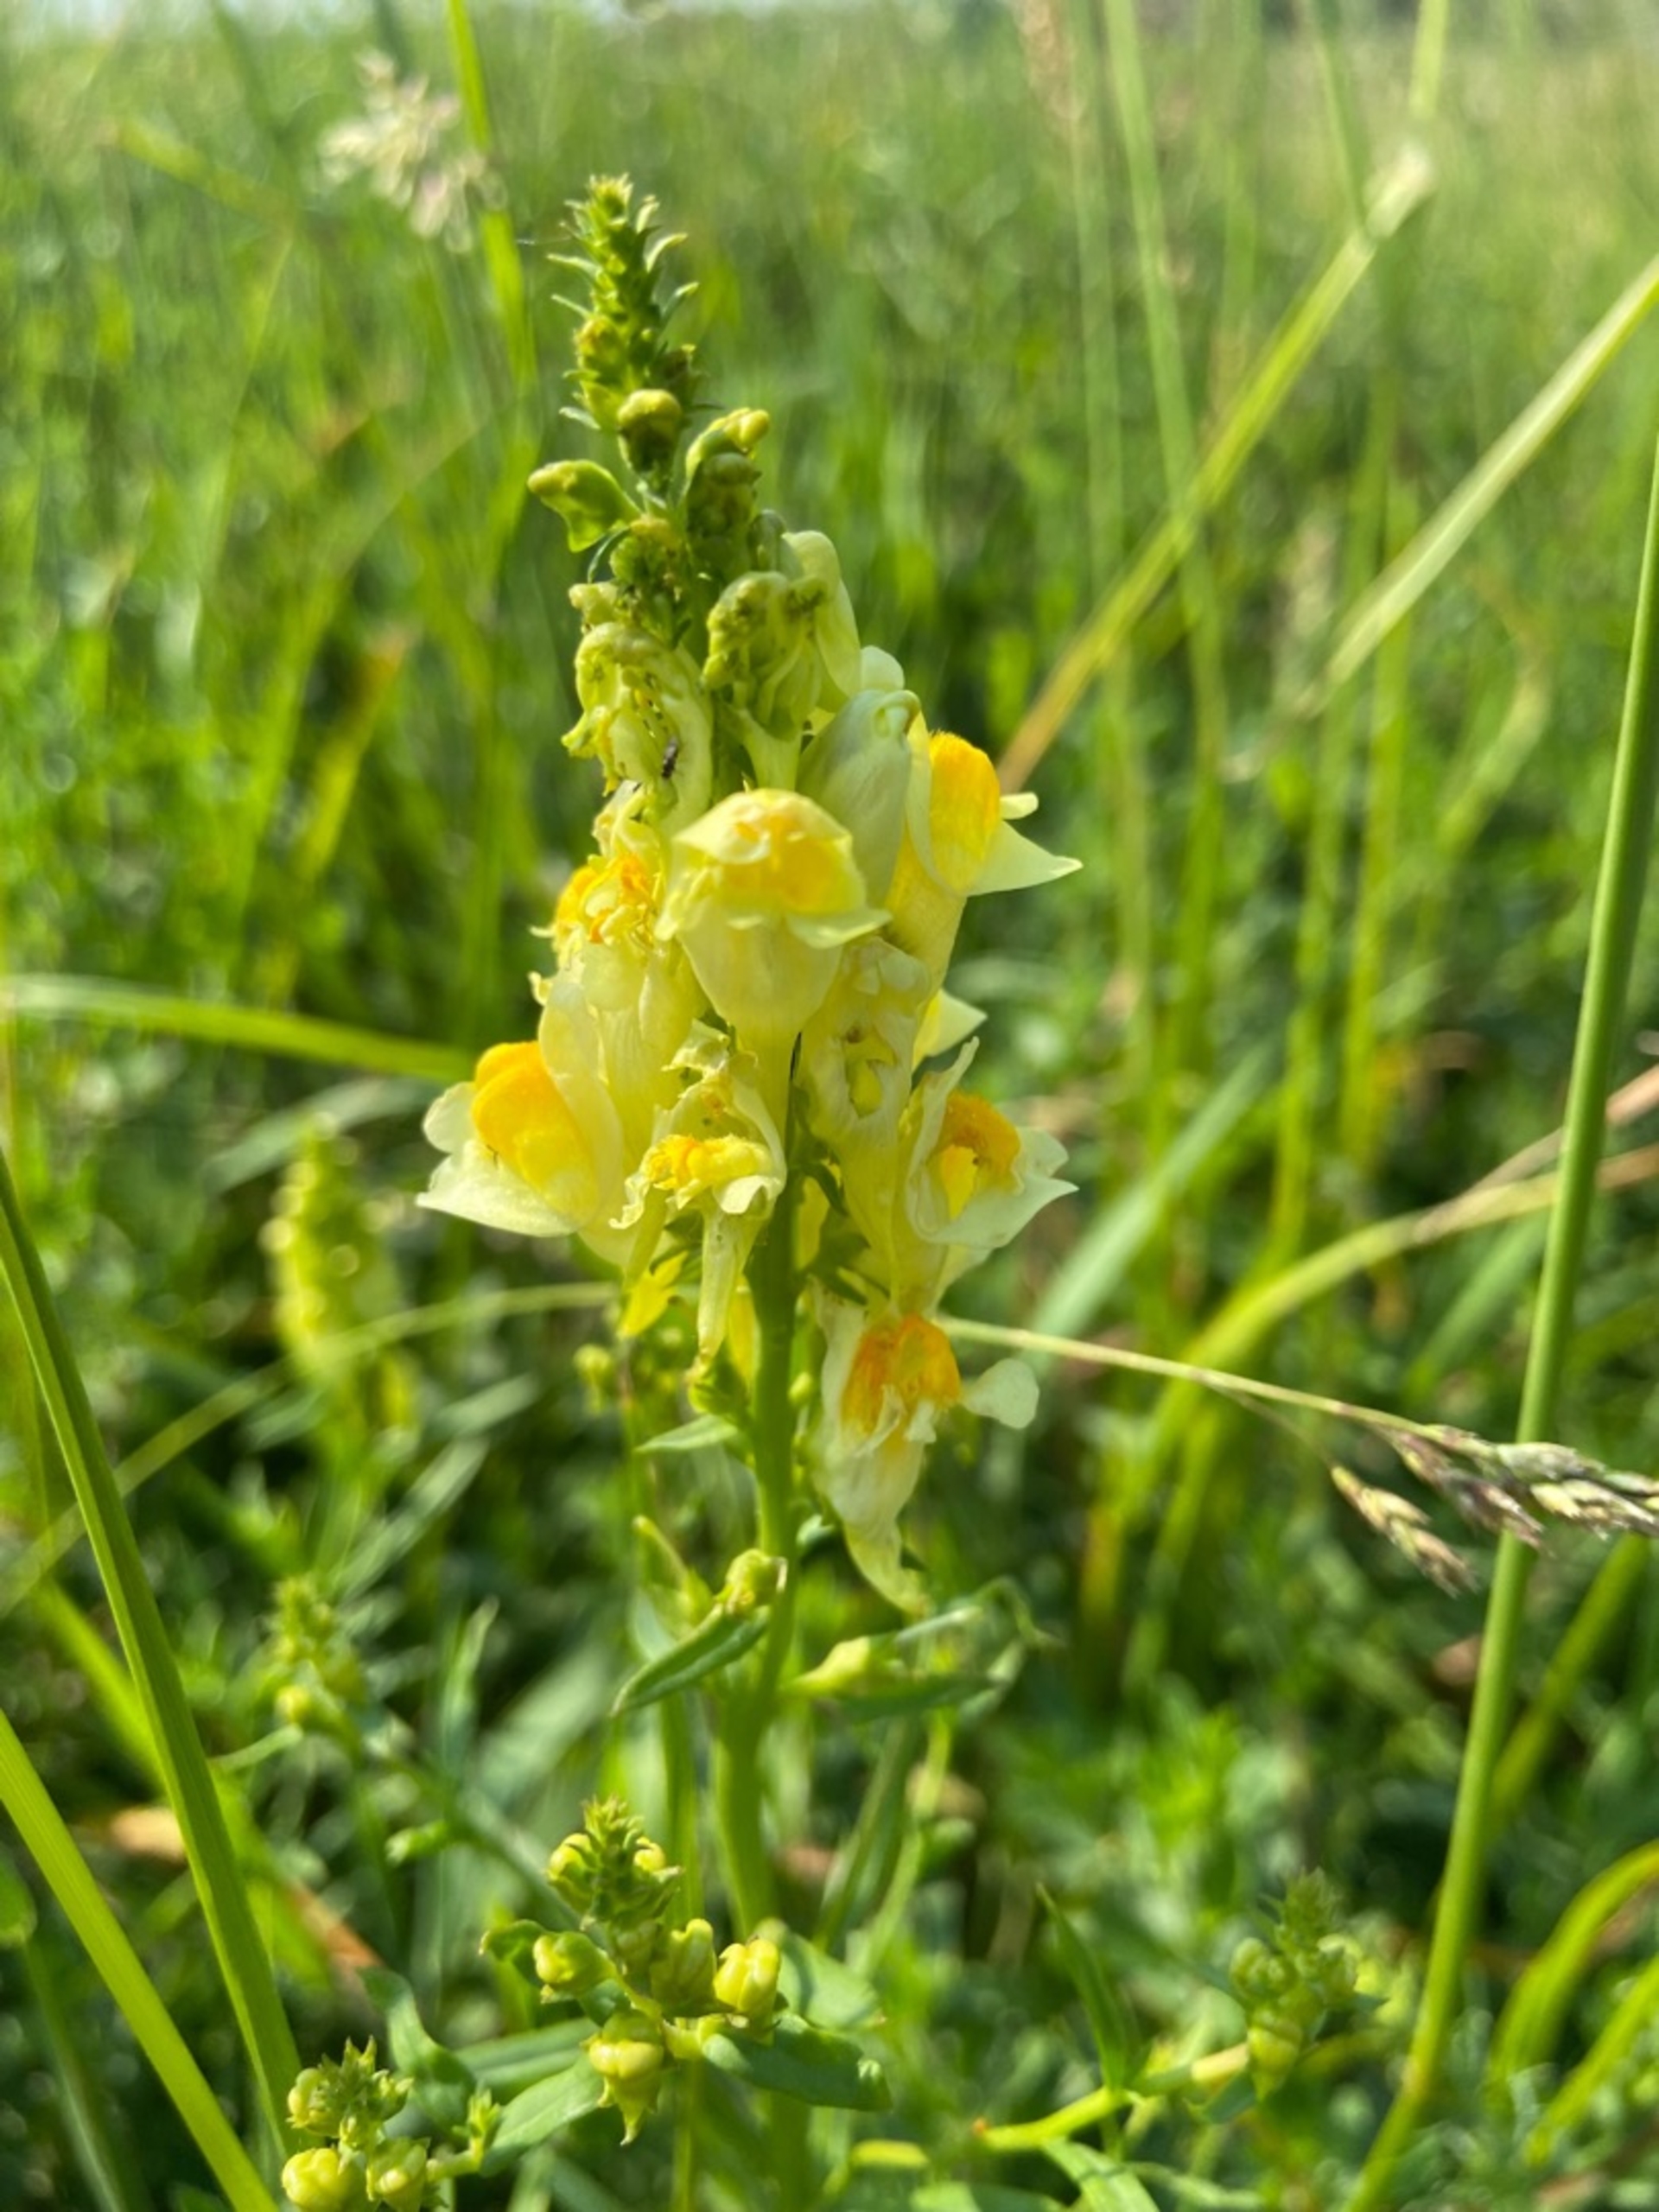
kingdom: Plantae
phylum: Tracheophyta
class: Magnoliopsida
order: Lamiales
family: Plantaginaceae
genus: Linaria
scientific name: Linaria vulgaris
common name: Almindelig torskemund
